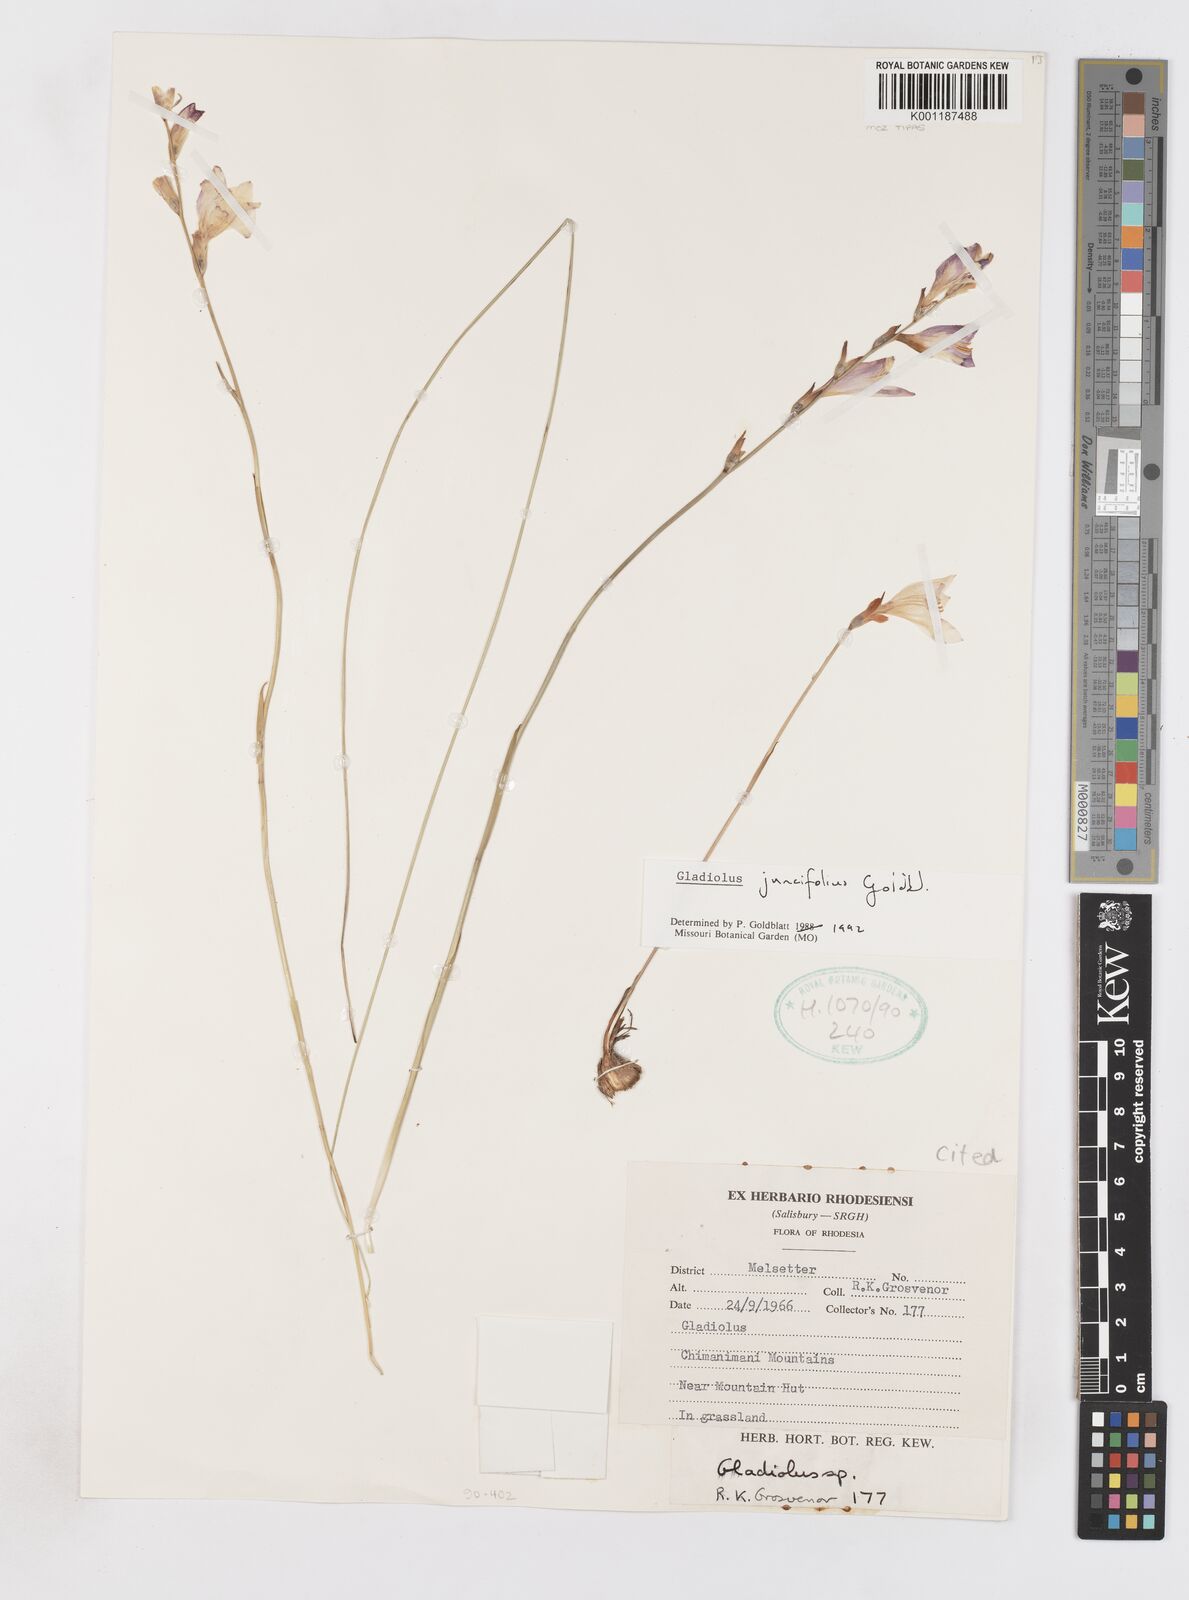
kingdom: Plantae
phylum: Tracheophyta
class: Liliopsida
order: Asparagales
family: Iridaceae
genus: Gladiolus
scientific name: Gladiolus juncifolius
